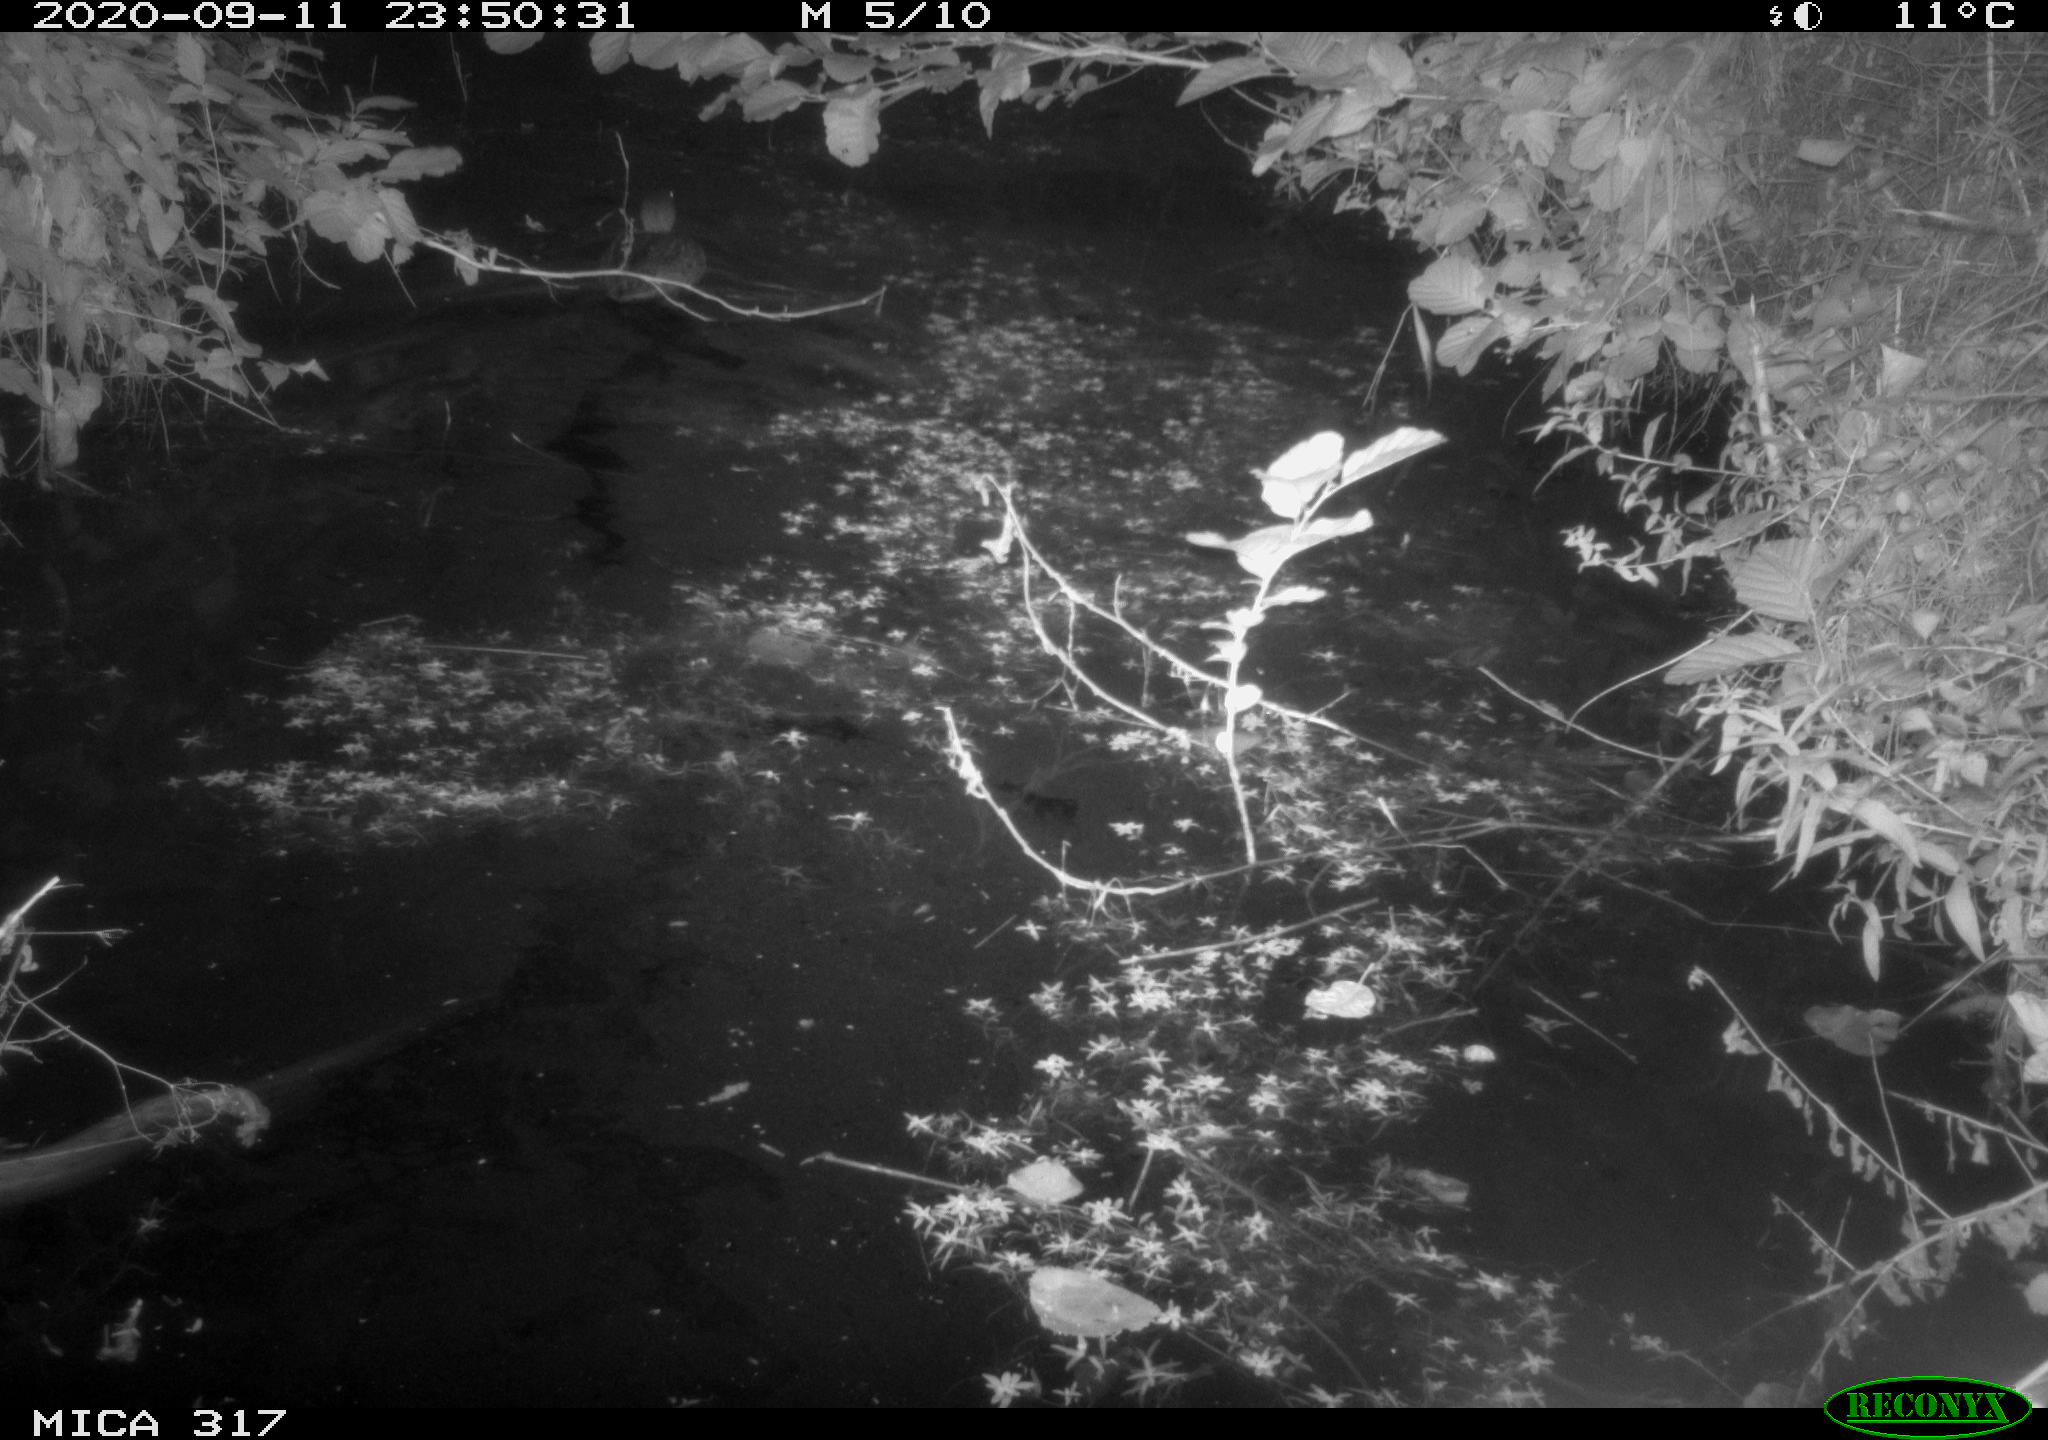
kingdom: Animalia
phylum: Chordata
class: Aves
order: Anseriformes
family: Anatidae
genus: Anas
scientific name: Anas platyrhynchos
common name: Mallard
